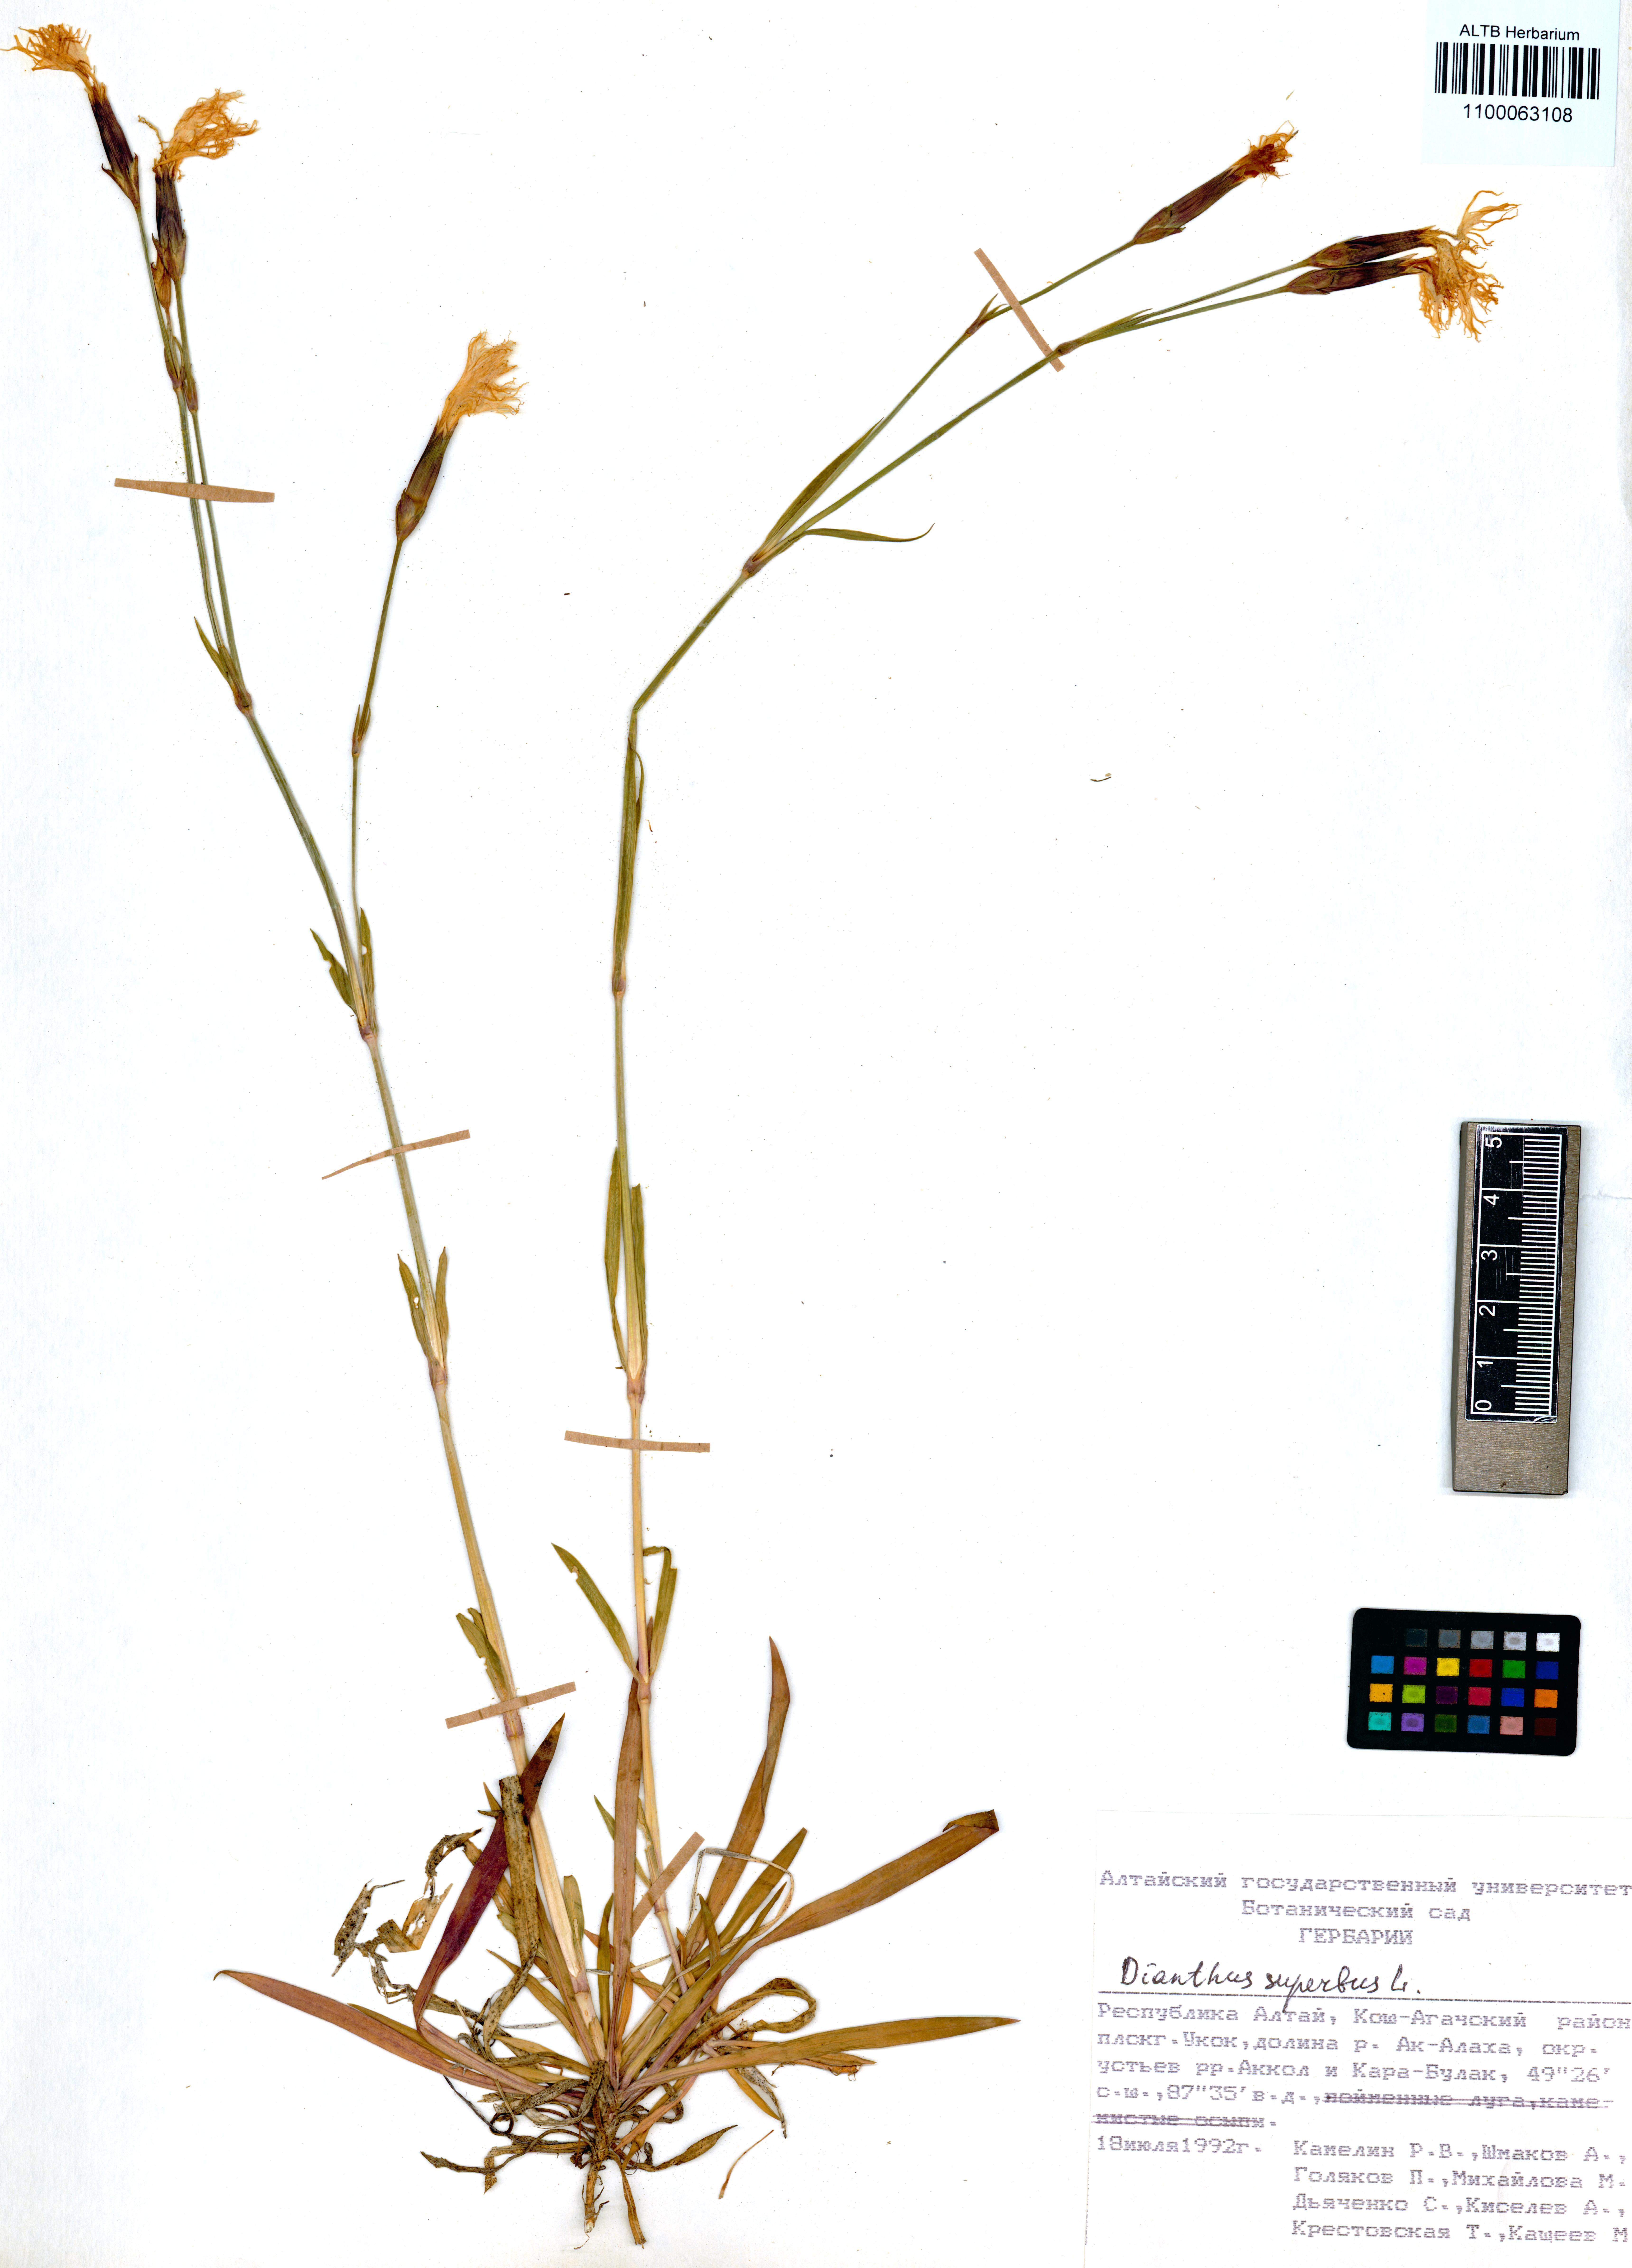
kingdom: Plantae
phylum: Tracheophyta
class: Magnoliopsida
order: Caryophyllales
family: Caryophyllaceae
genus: Dianthus
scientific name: Dianthus superbus
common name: Fringed pink
